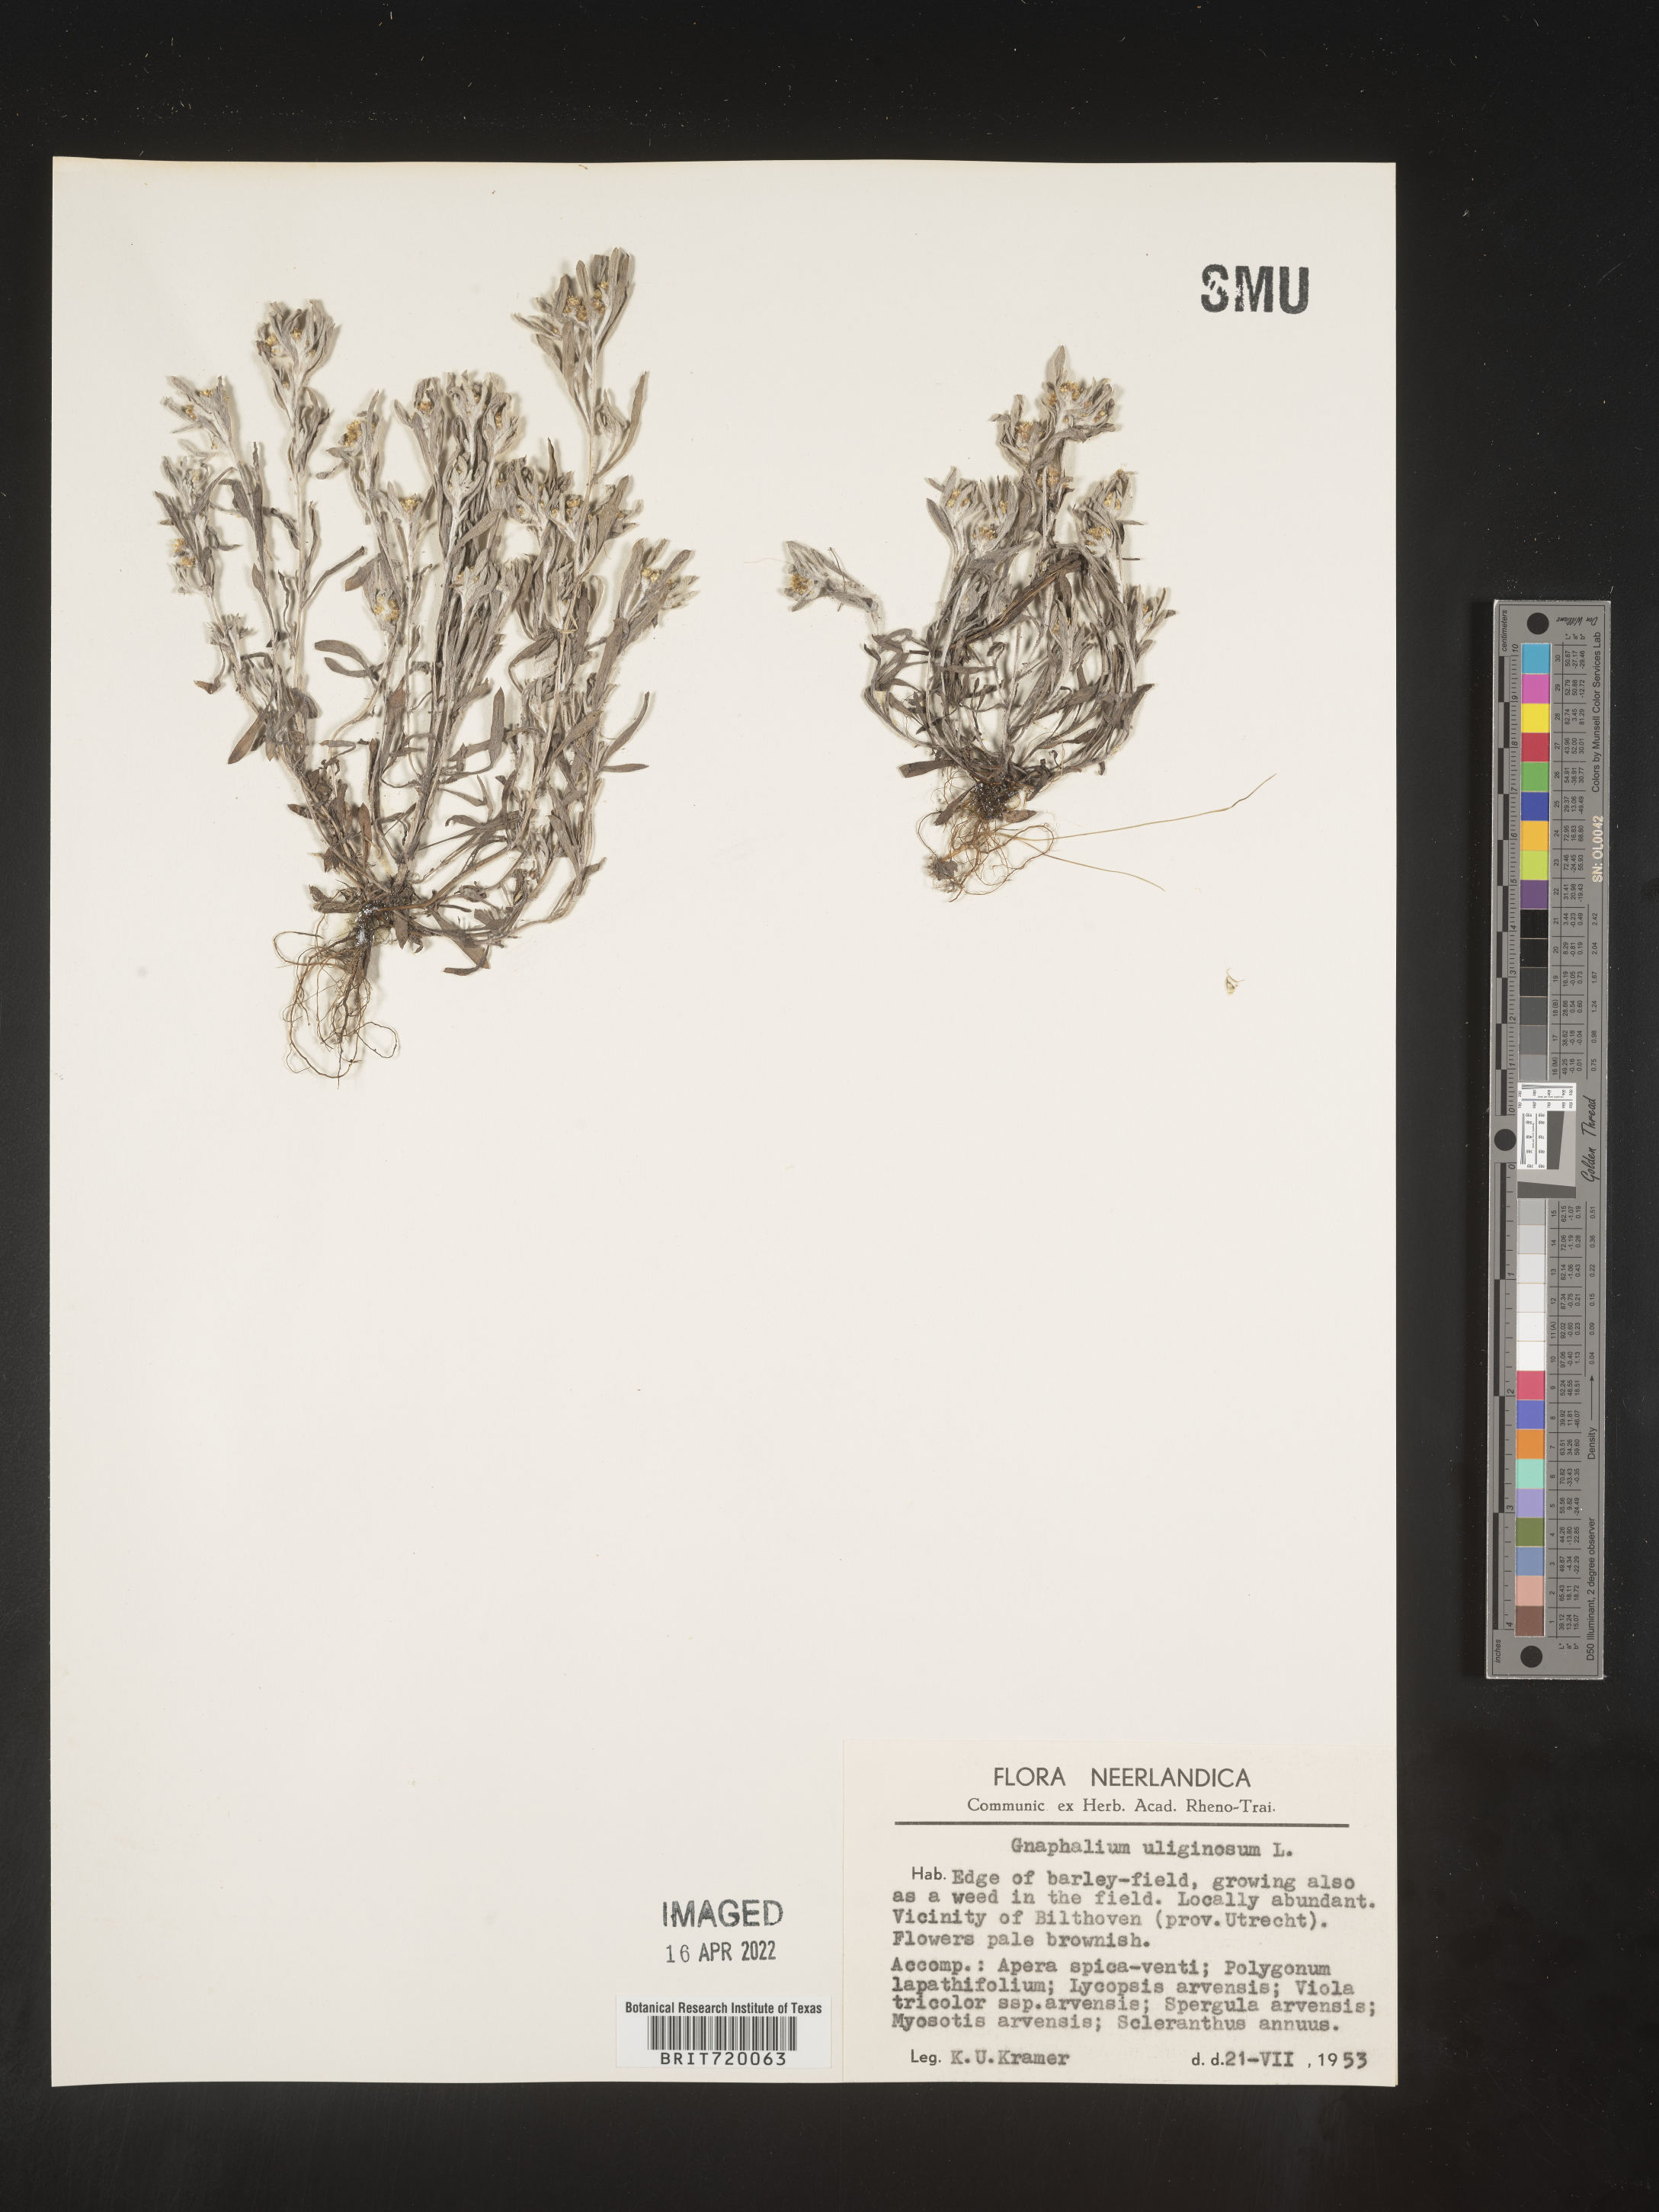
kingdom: Plantae
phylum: Tracheophyta
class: Magnoliopsida
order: Asterales
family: Asteraceae
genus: Gnaphalium
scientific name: Gnaphalium
